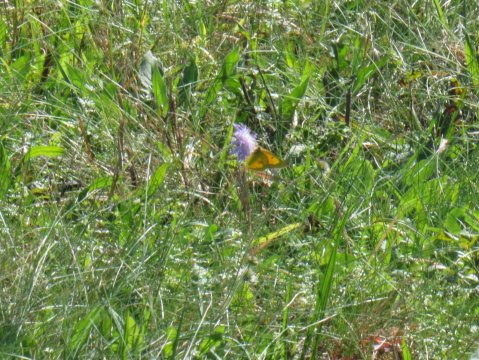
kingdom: Animalia
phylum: Arthropoda
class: Insecta
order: Lepidoptera
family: Pieridae
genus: Colias
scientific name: Colias eurytheme
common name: Orange Sulphur
